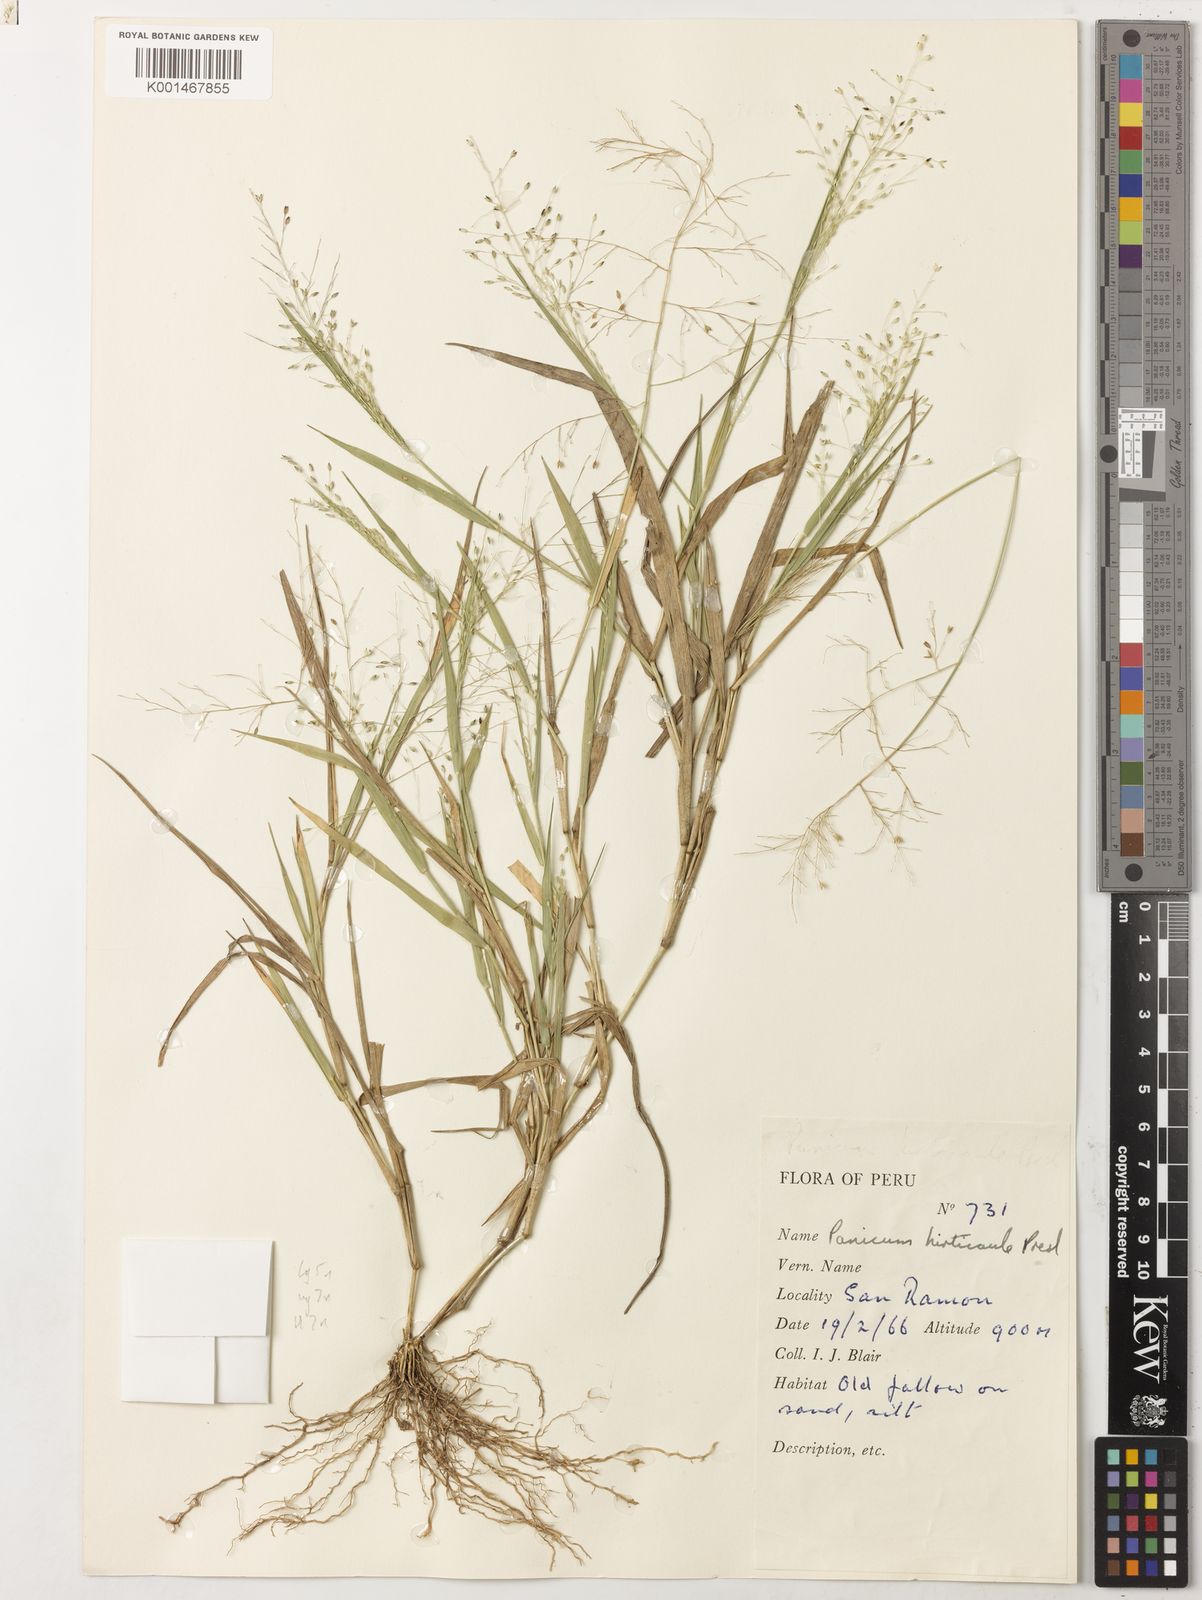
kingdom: Plantae
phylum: Tracheophyta
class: Liliopsida
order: Poales
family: Poaceae
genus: Panicum
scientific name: Panicum hirticaule
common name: Rough-stalk witchgrass
